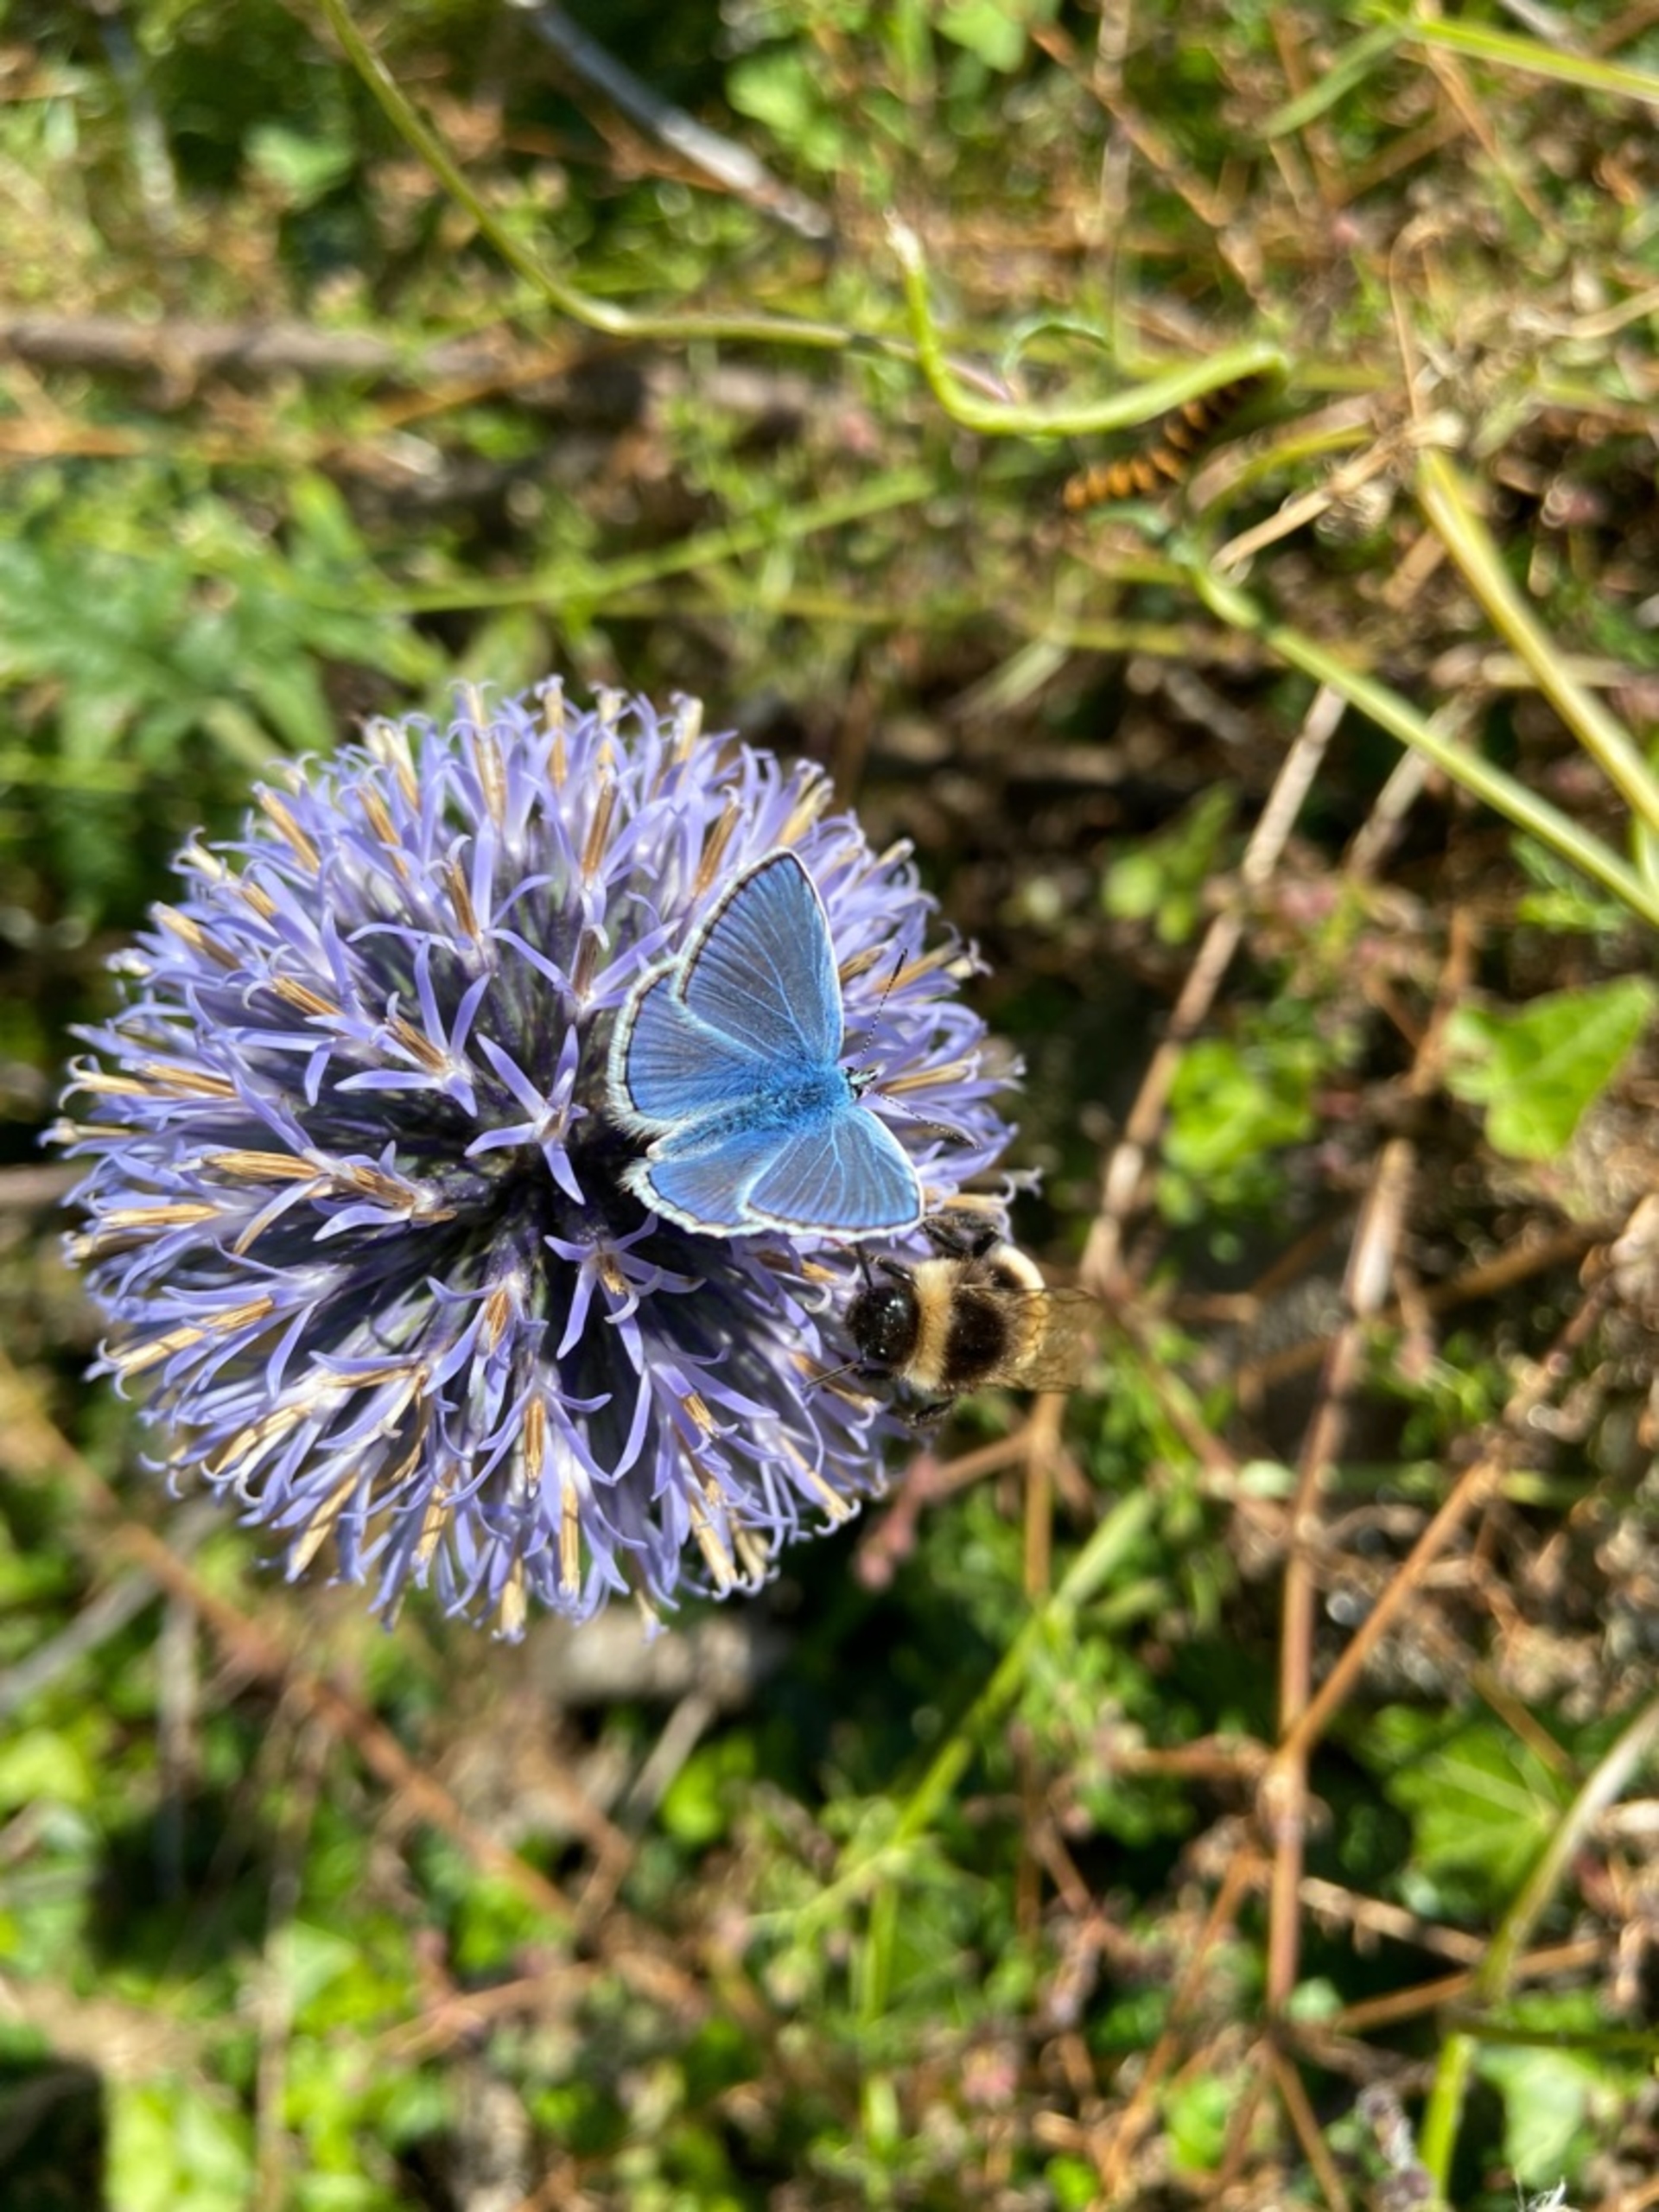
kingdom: Animalia
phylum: Arthropoda
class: Insecta
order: Lepidoptera
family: Lycaenidae
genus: Polyommatus
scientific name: Polyommatus icarus
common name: Almindelig blåfugl
